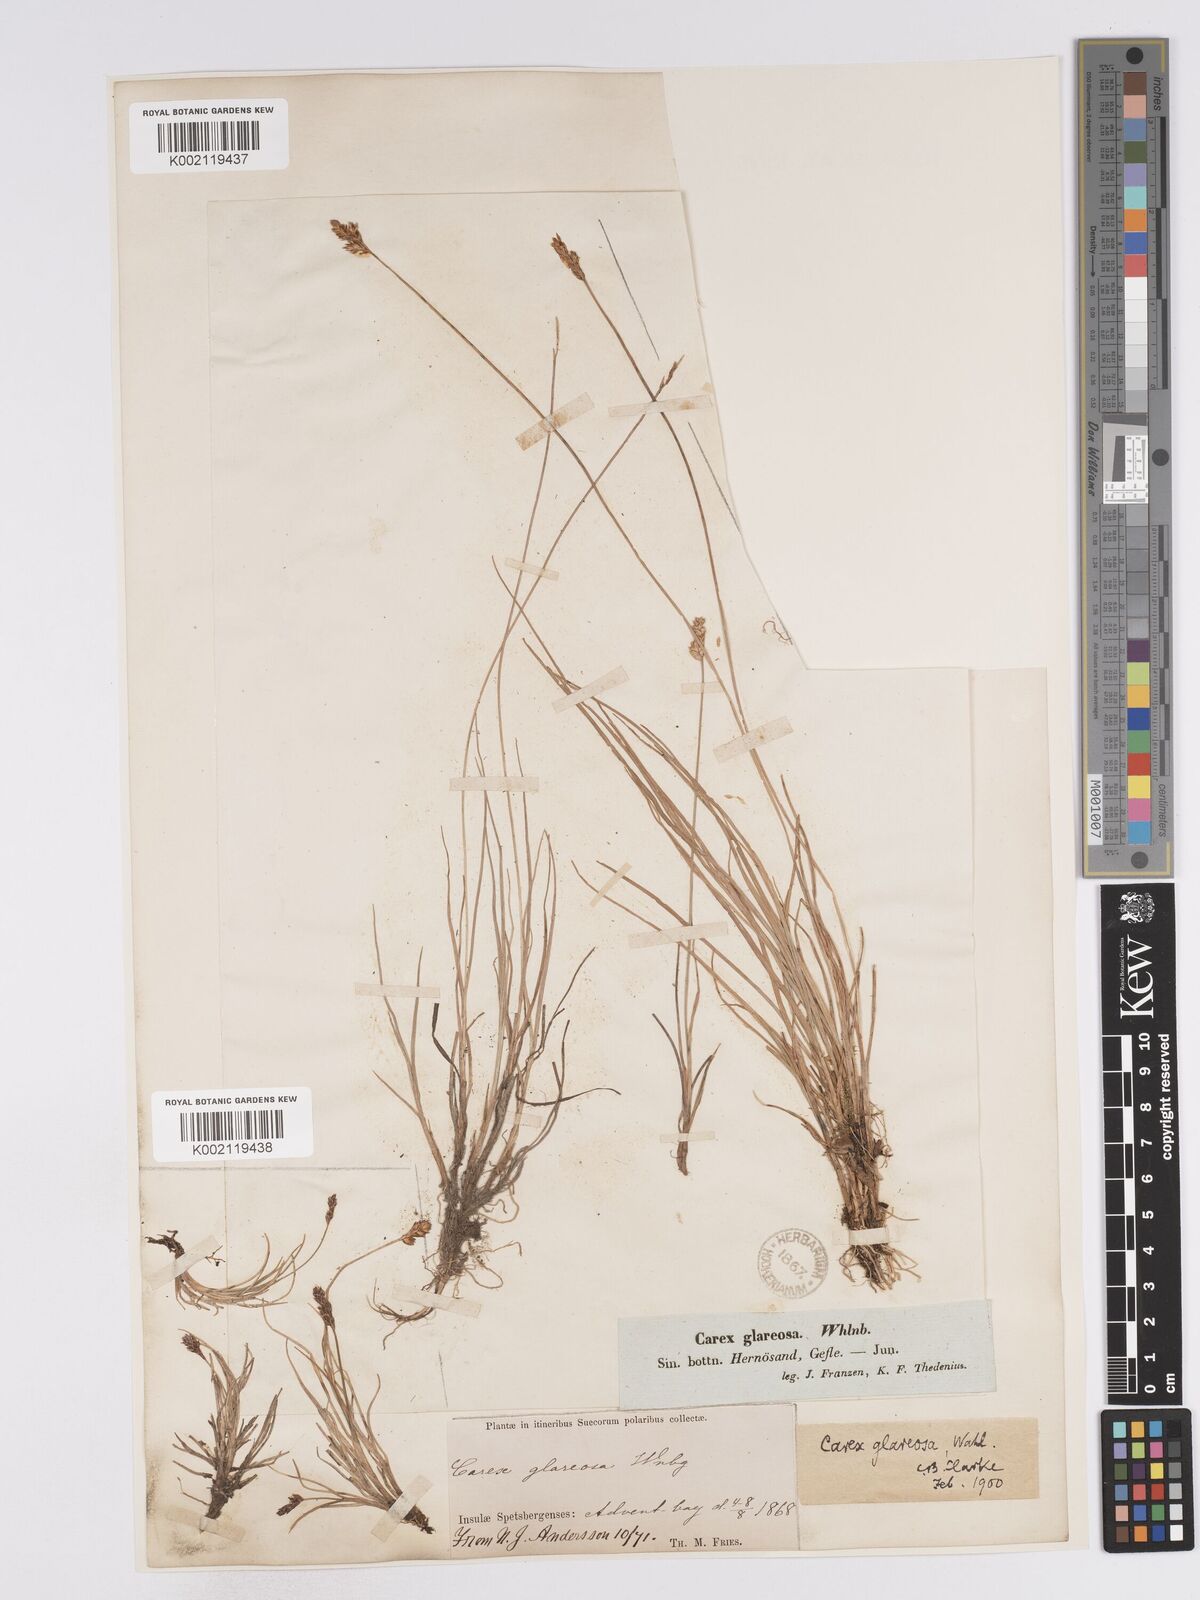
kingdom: Plantae
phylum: Tracheophyta
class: Liliopsida
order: Poales
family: Cyperaceae
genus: Carex
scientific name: Carex glareosa
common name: Clustered sedge
